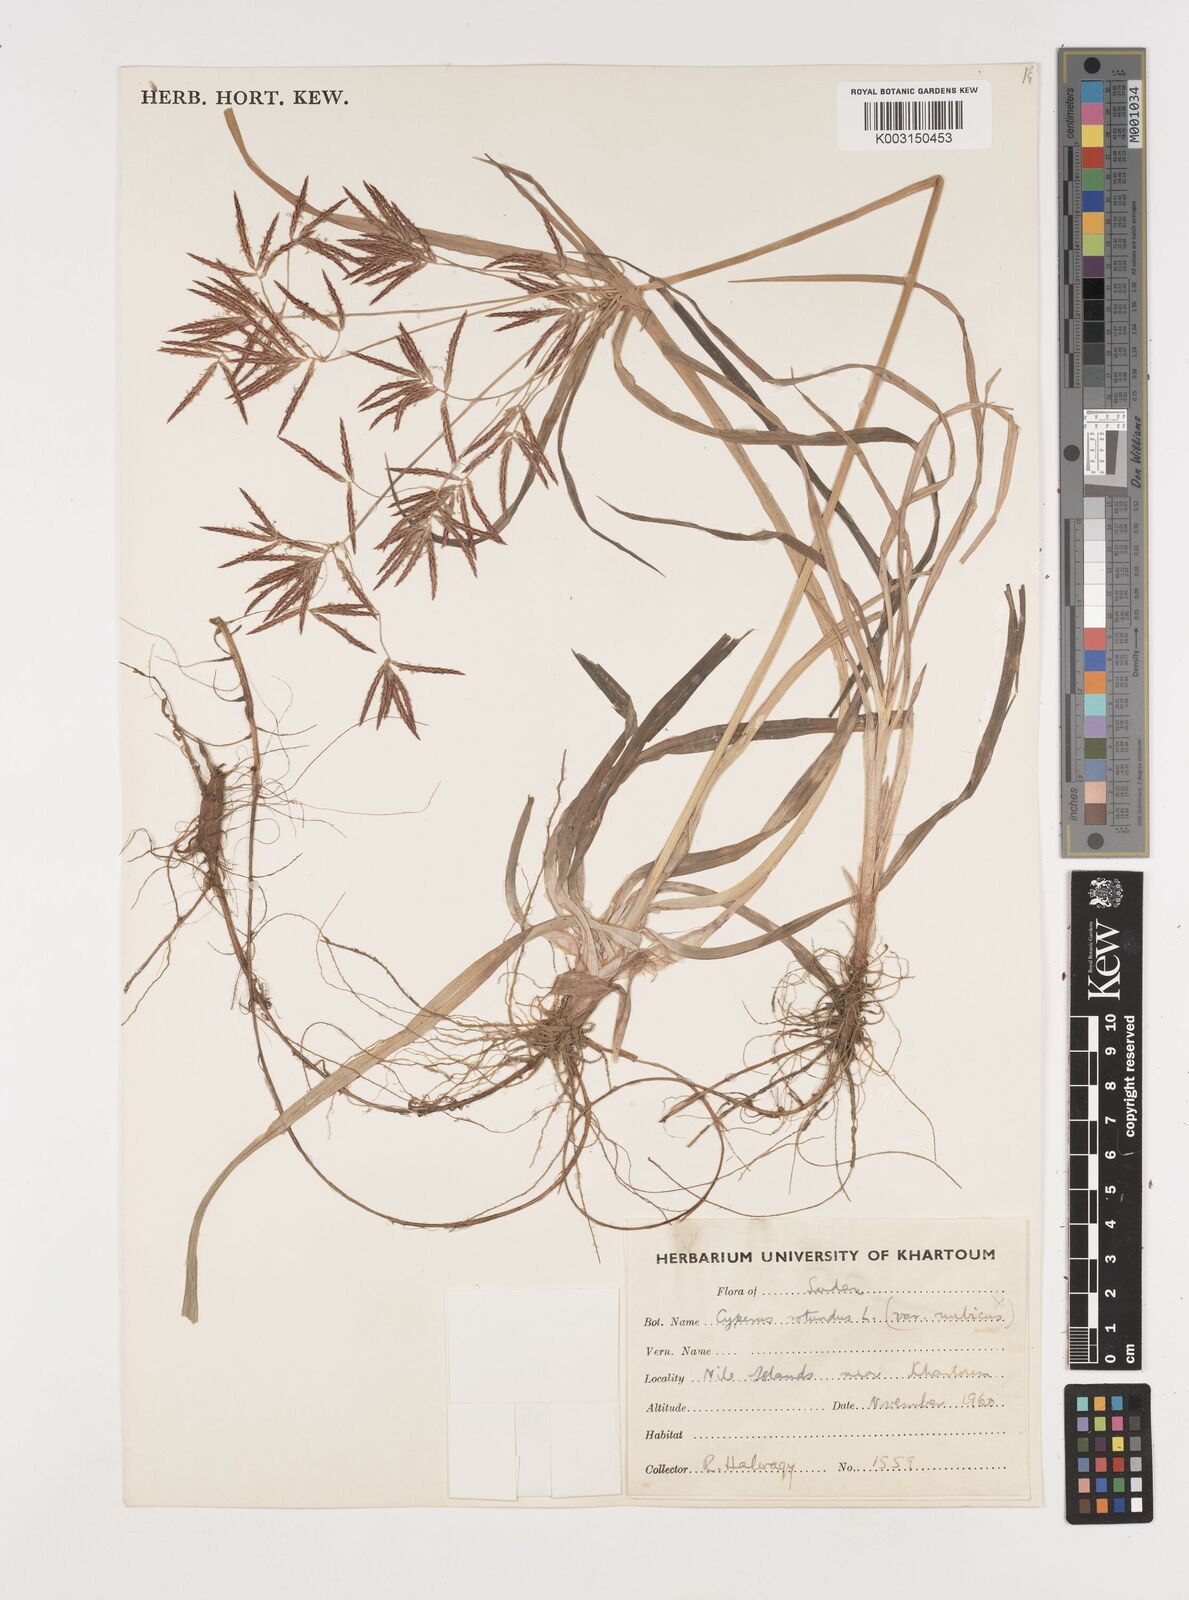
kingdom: Plantae
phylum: Tracheophyta
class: Liliopsida
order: Poales
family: Cyperaceae
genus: Cyperus
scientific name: Cyperus rotundus
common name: Nutgrass
